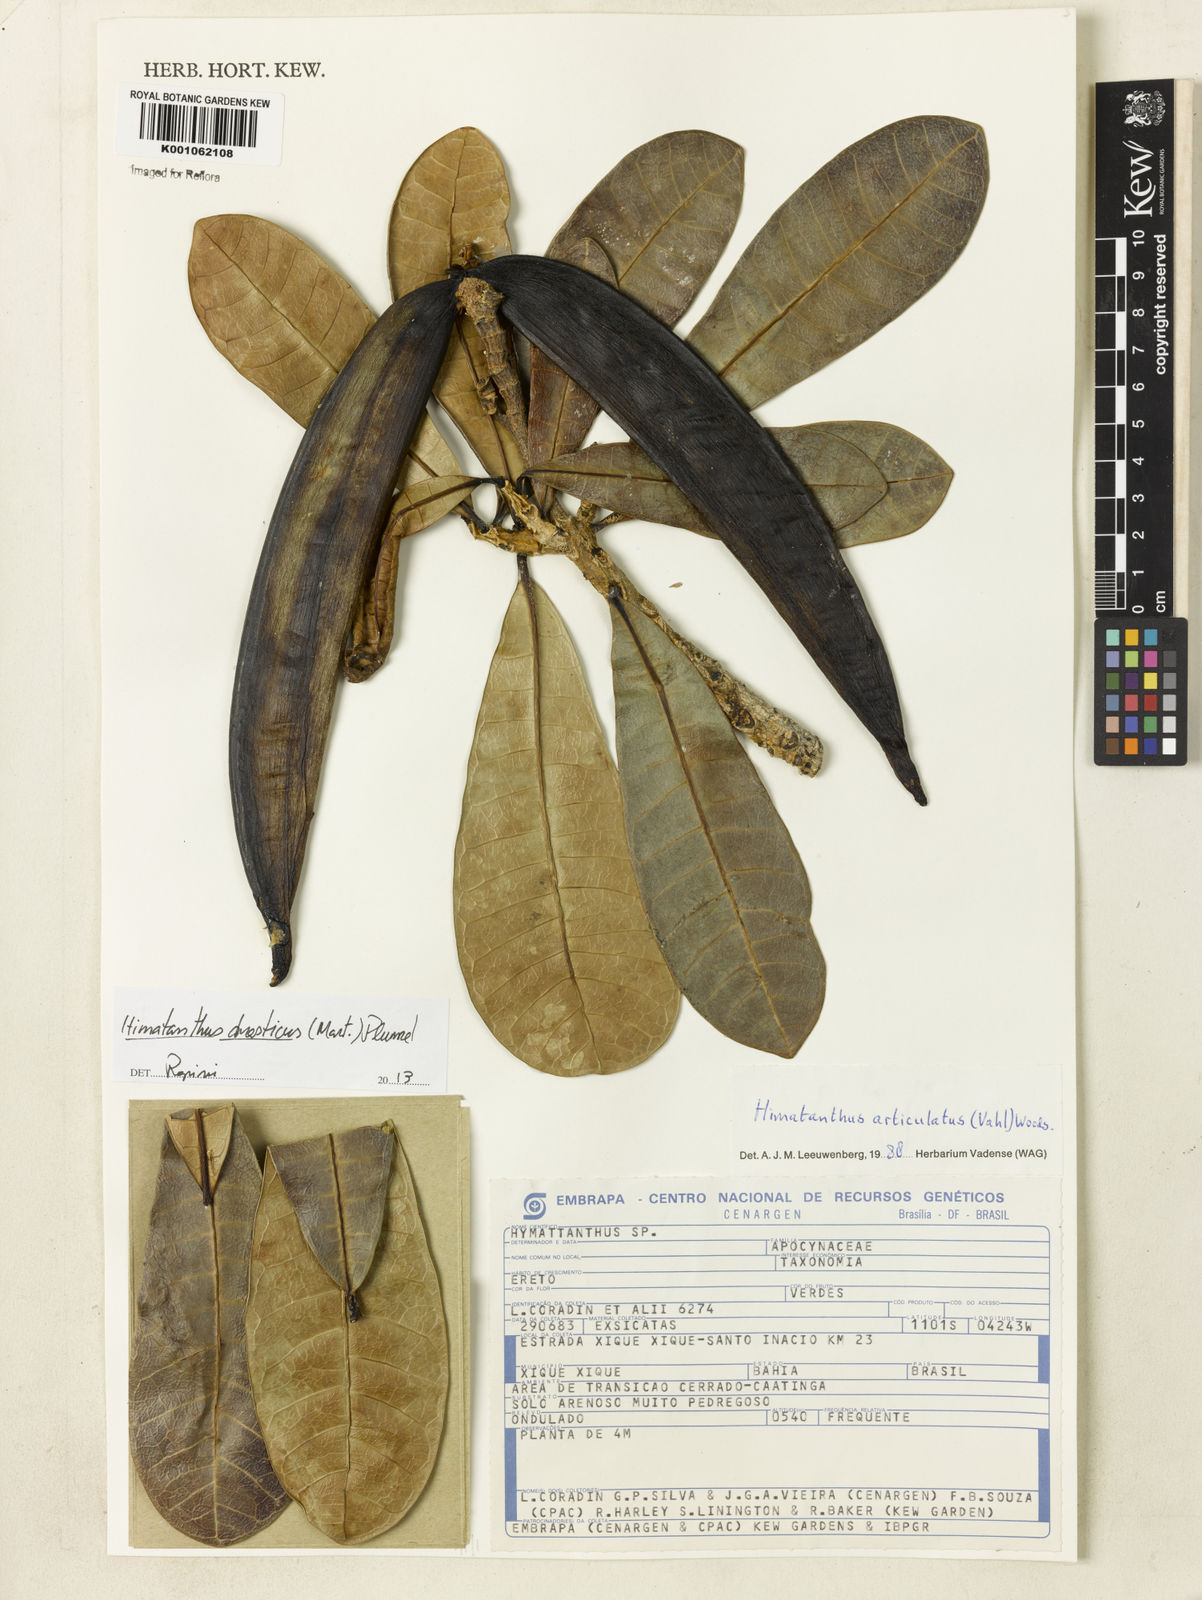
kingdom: Plantae
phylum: Tracheophyta
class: Magnoliopsida
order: Gentianales
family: Apocynaceae
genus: Himatanthus
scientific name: Himatanthus drasticus
